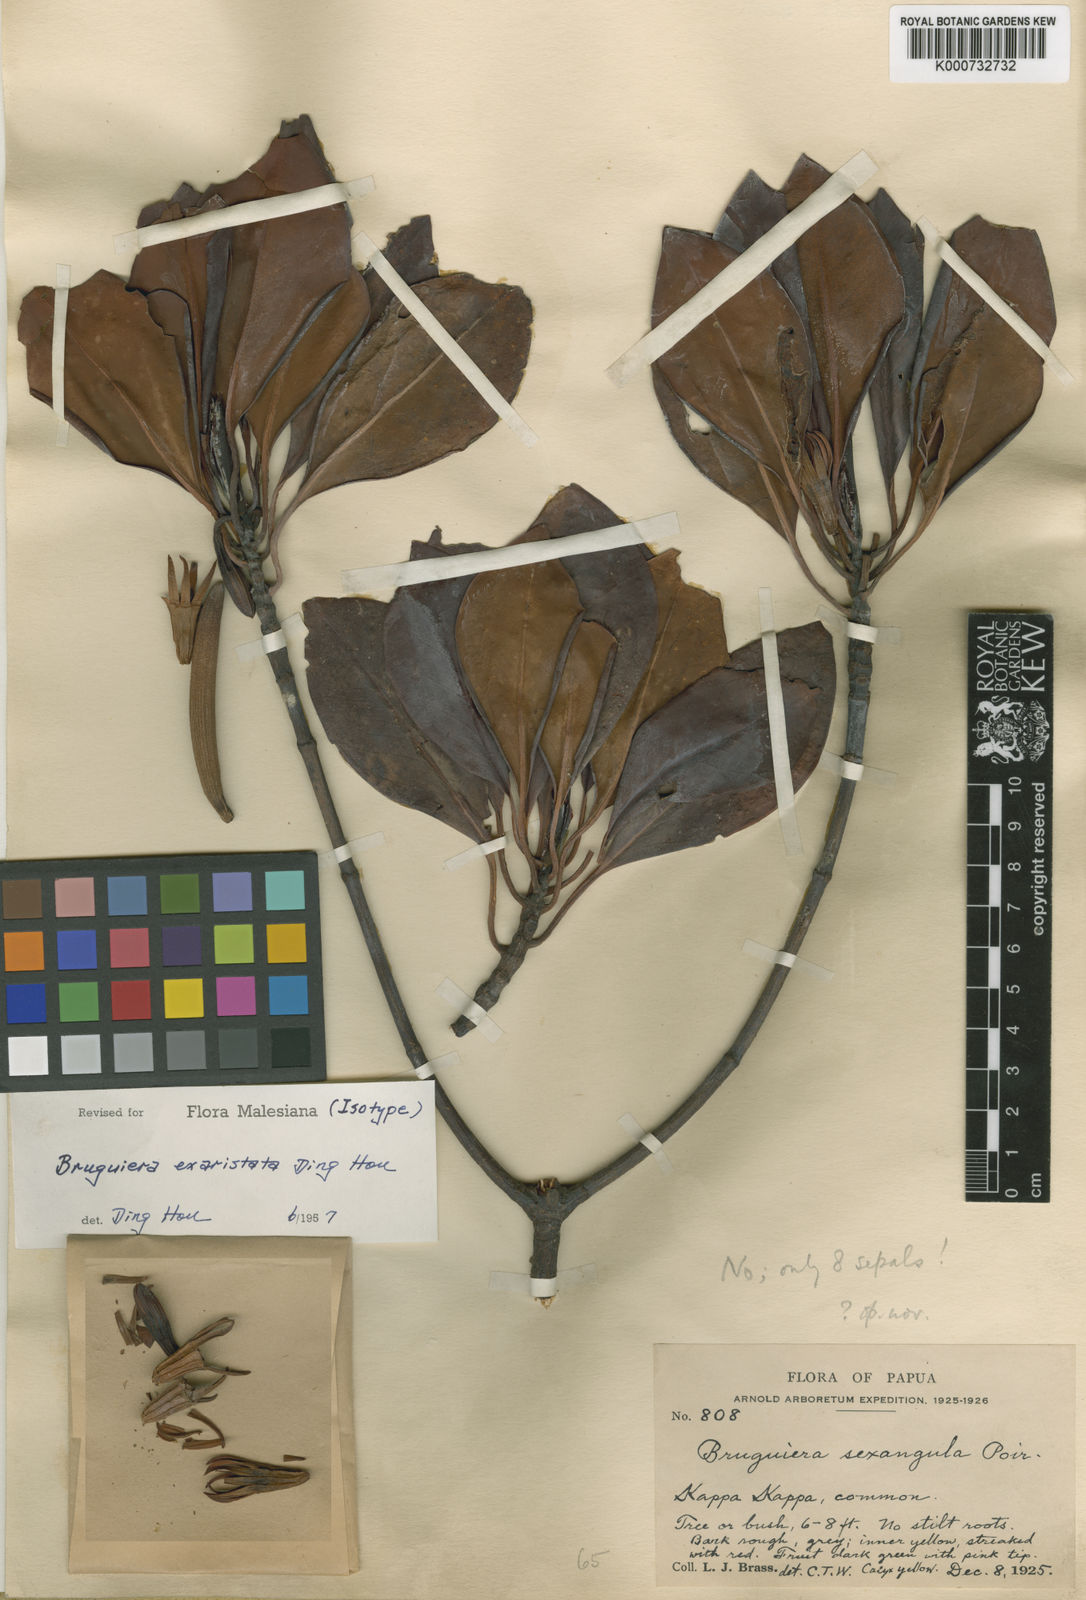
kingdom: Plantae
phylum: Tracheophyta
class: Magnoliopsida
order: Malpighiales
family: Rhizophoraceae
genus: Bruguiera
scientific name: Bruguiera exaristata
